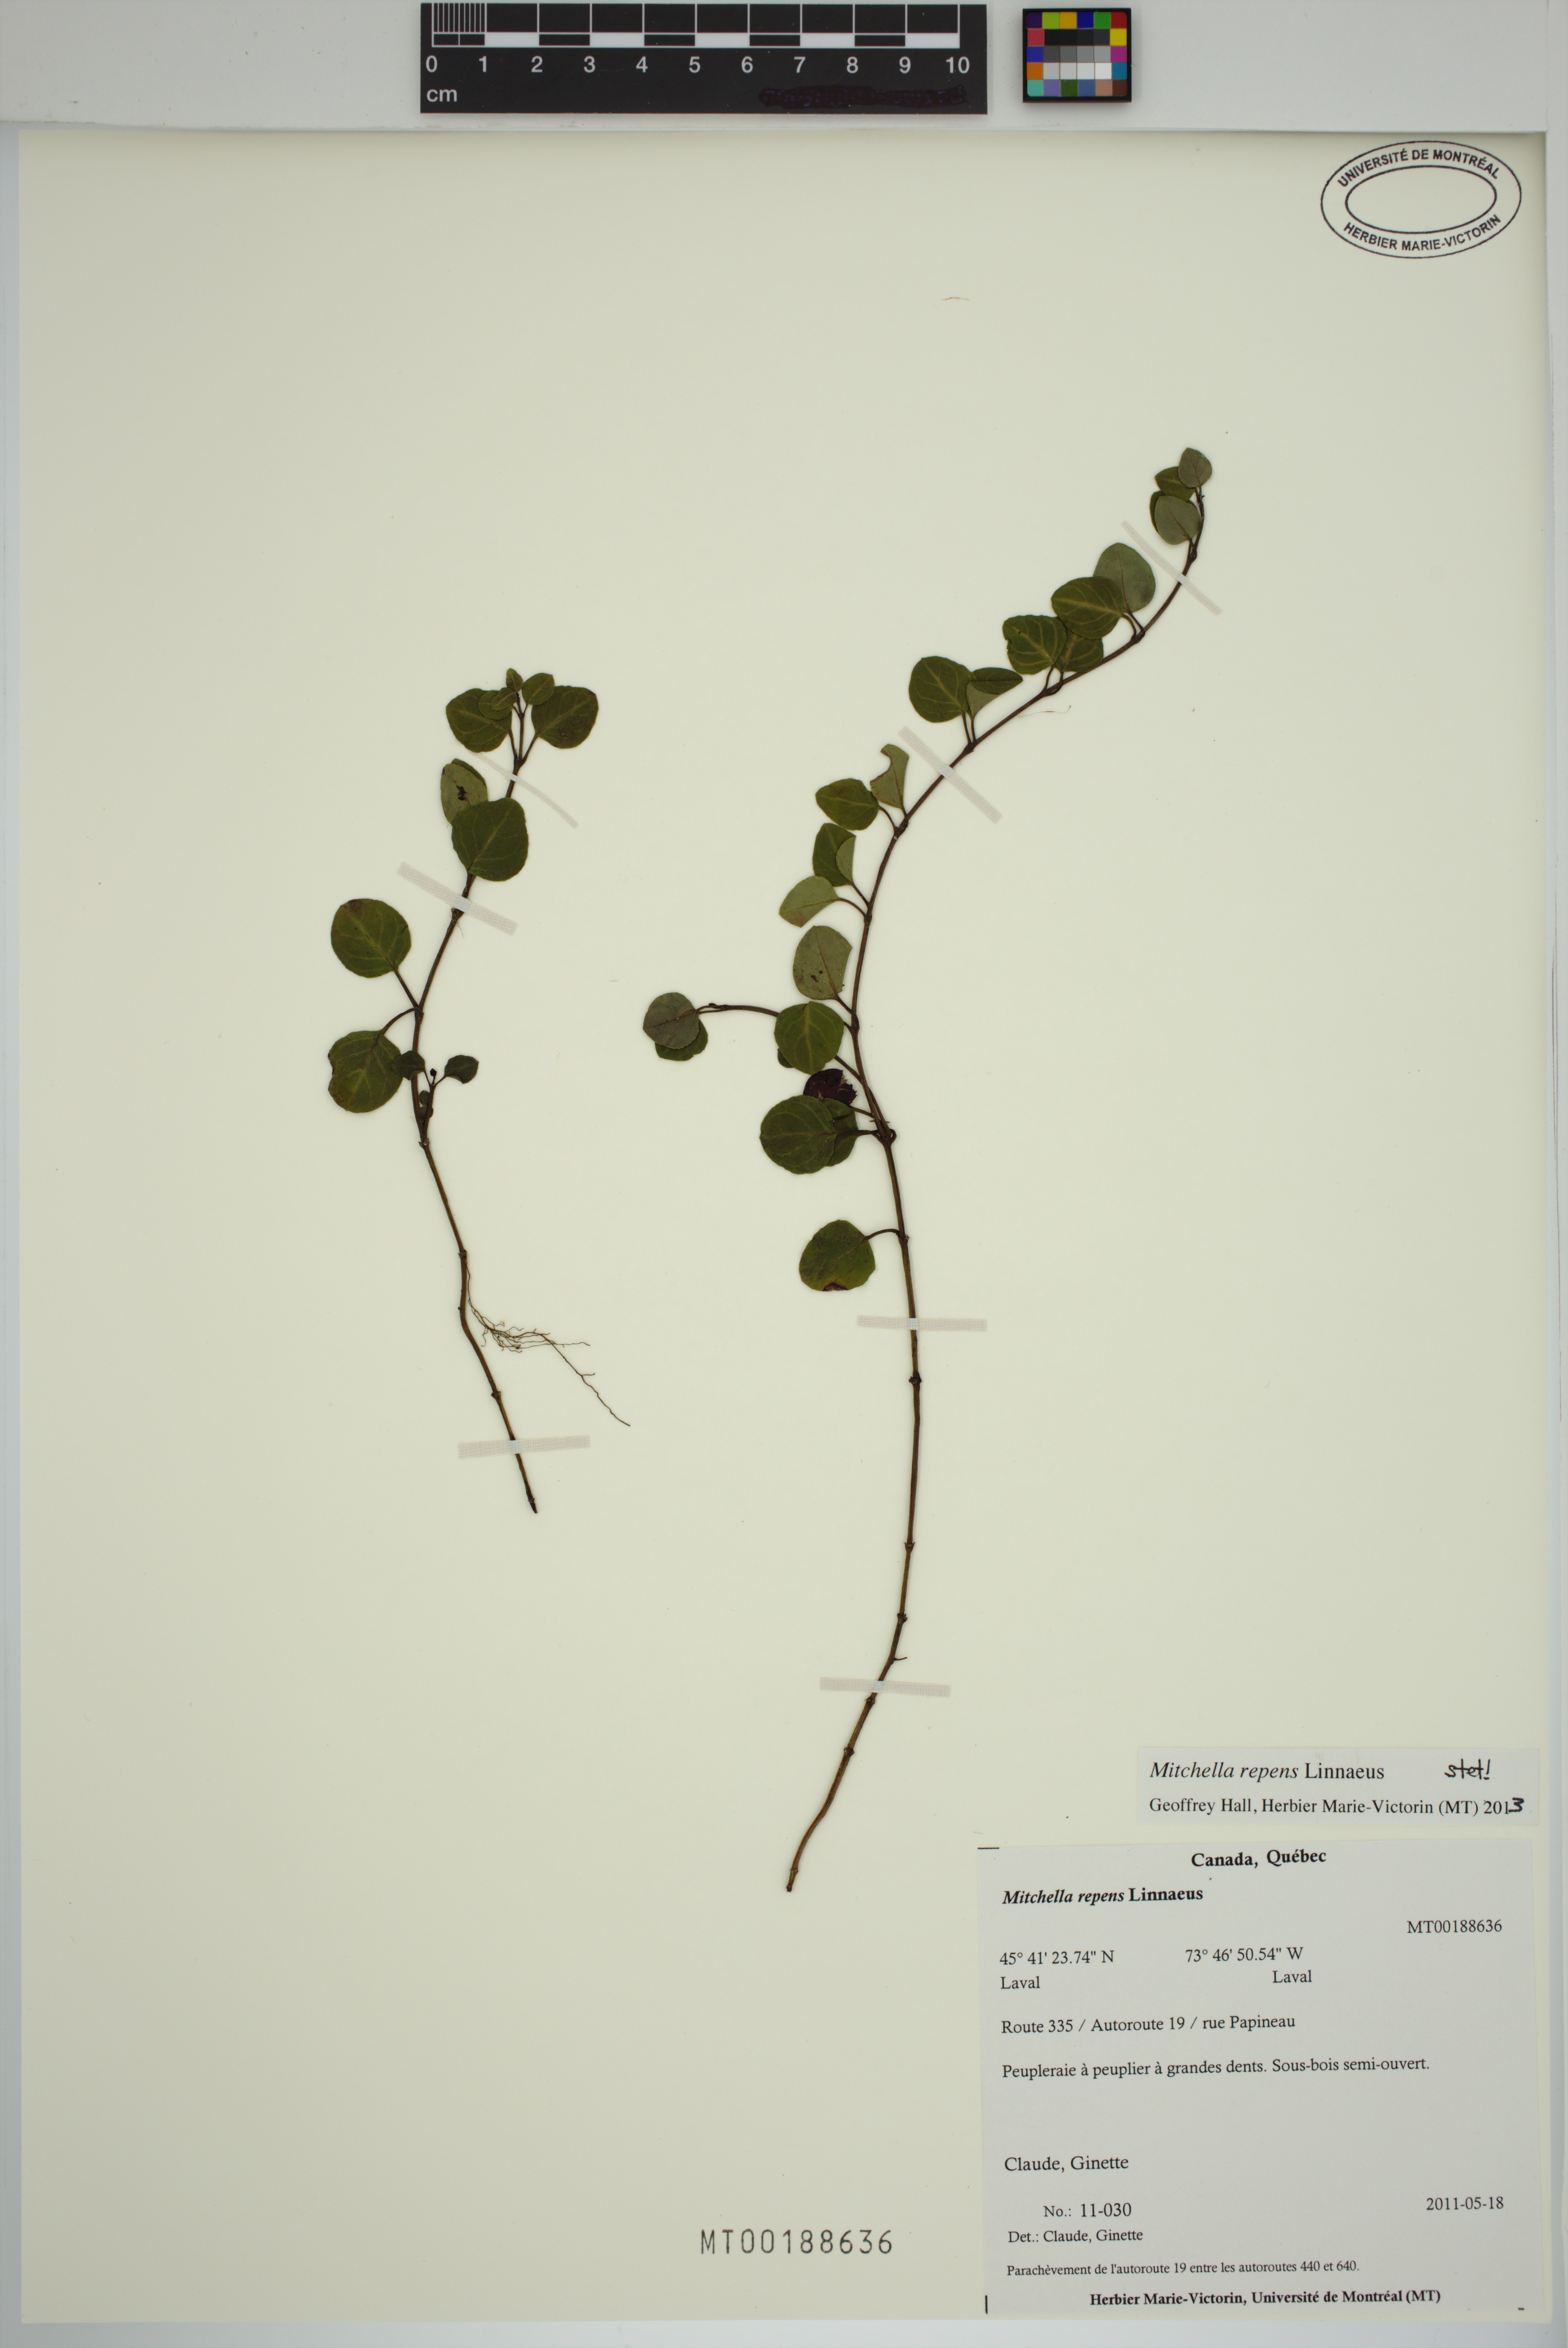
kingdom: Plantae
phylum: Tracheophyta
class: Magnoliopsida
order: Gentianales
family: Rubiaceae
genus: Mitchella
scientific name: Mitchella repens
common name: Partridge-berry
